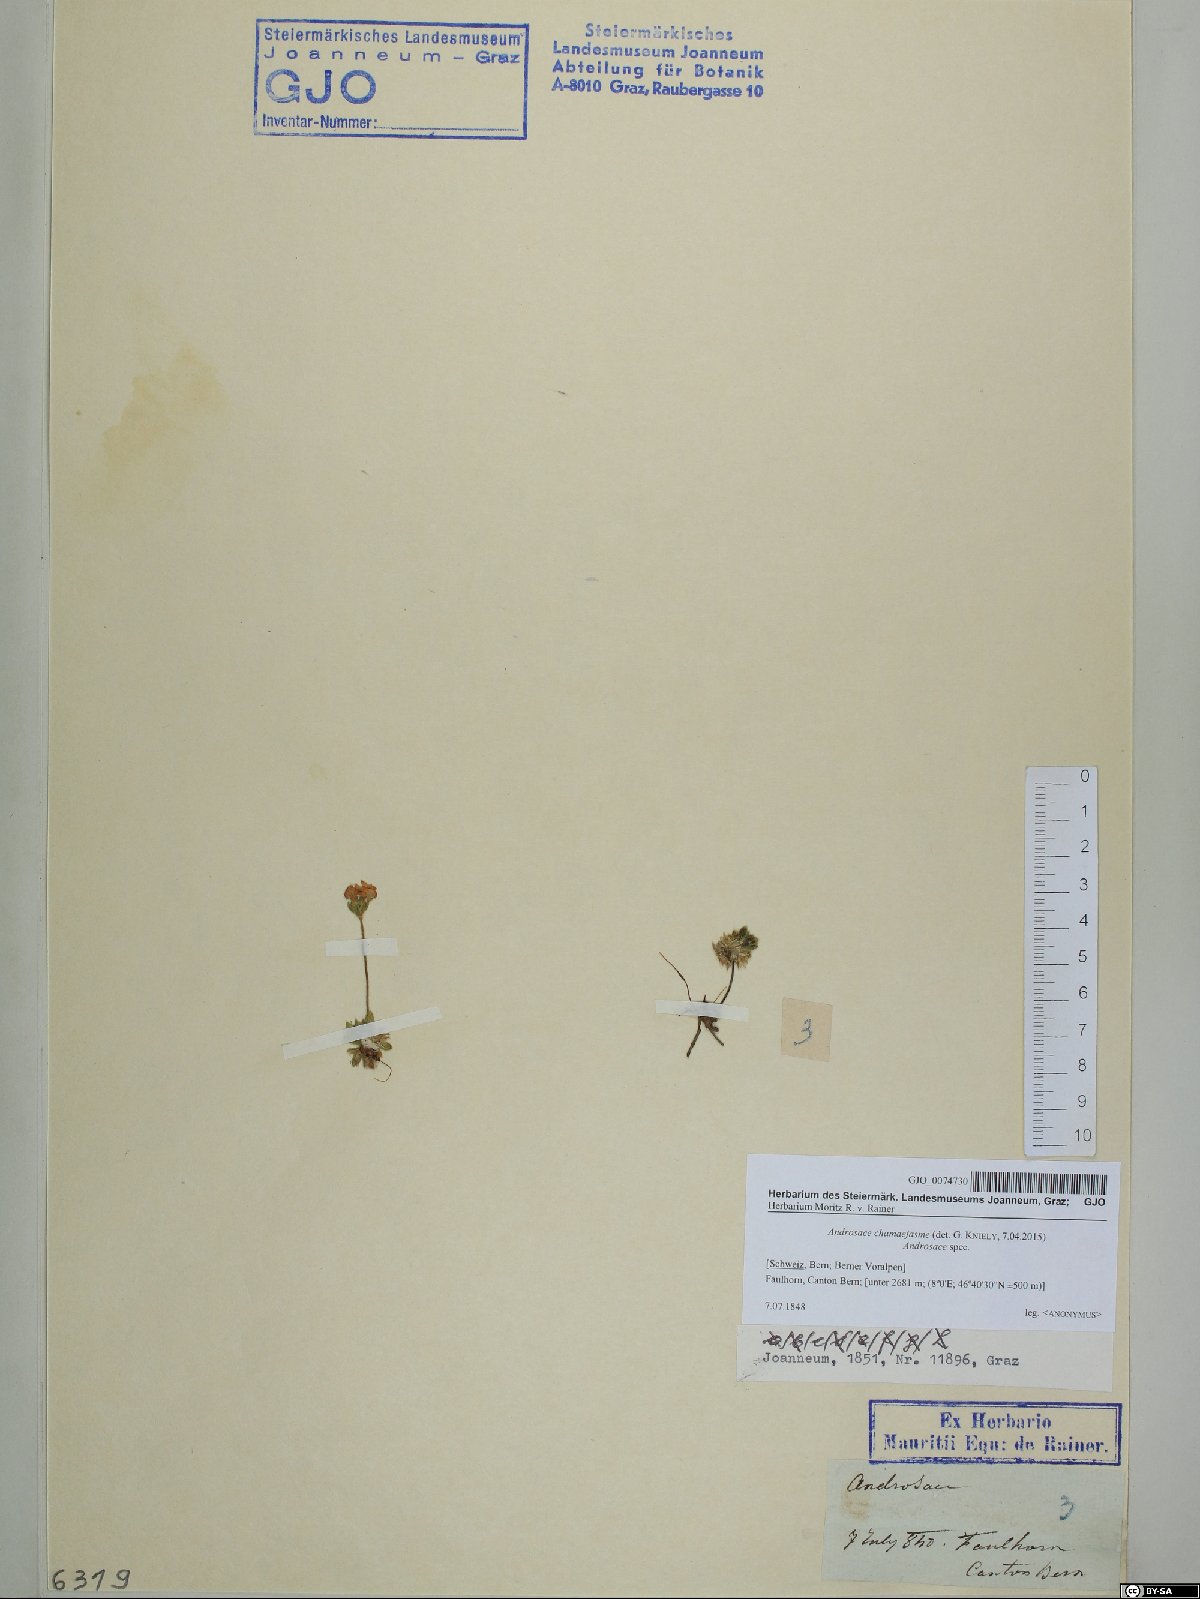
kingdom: Plantae
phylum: Tracheophyta
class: Magnoliopsida
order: Ericales
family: Primulaceae
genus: Androsace
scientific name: Androsace chamaejasme
